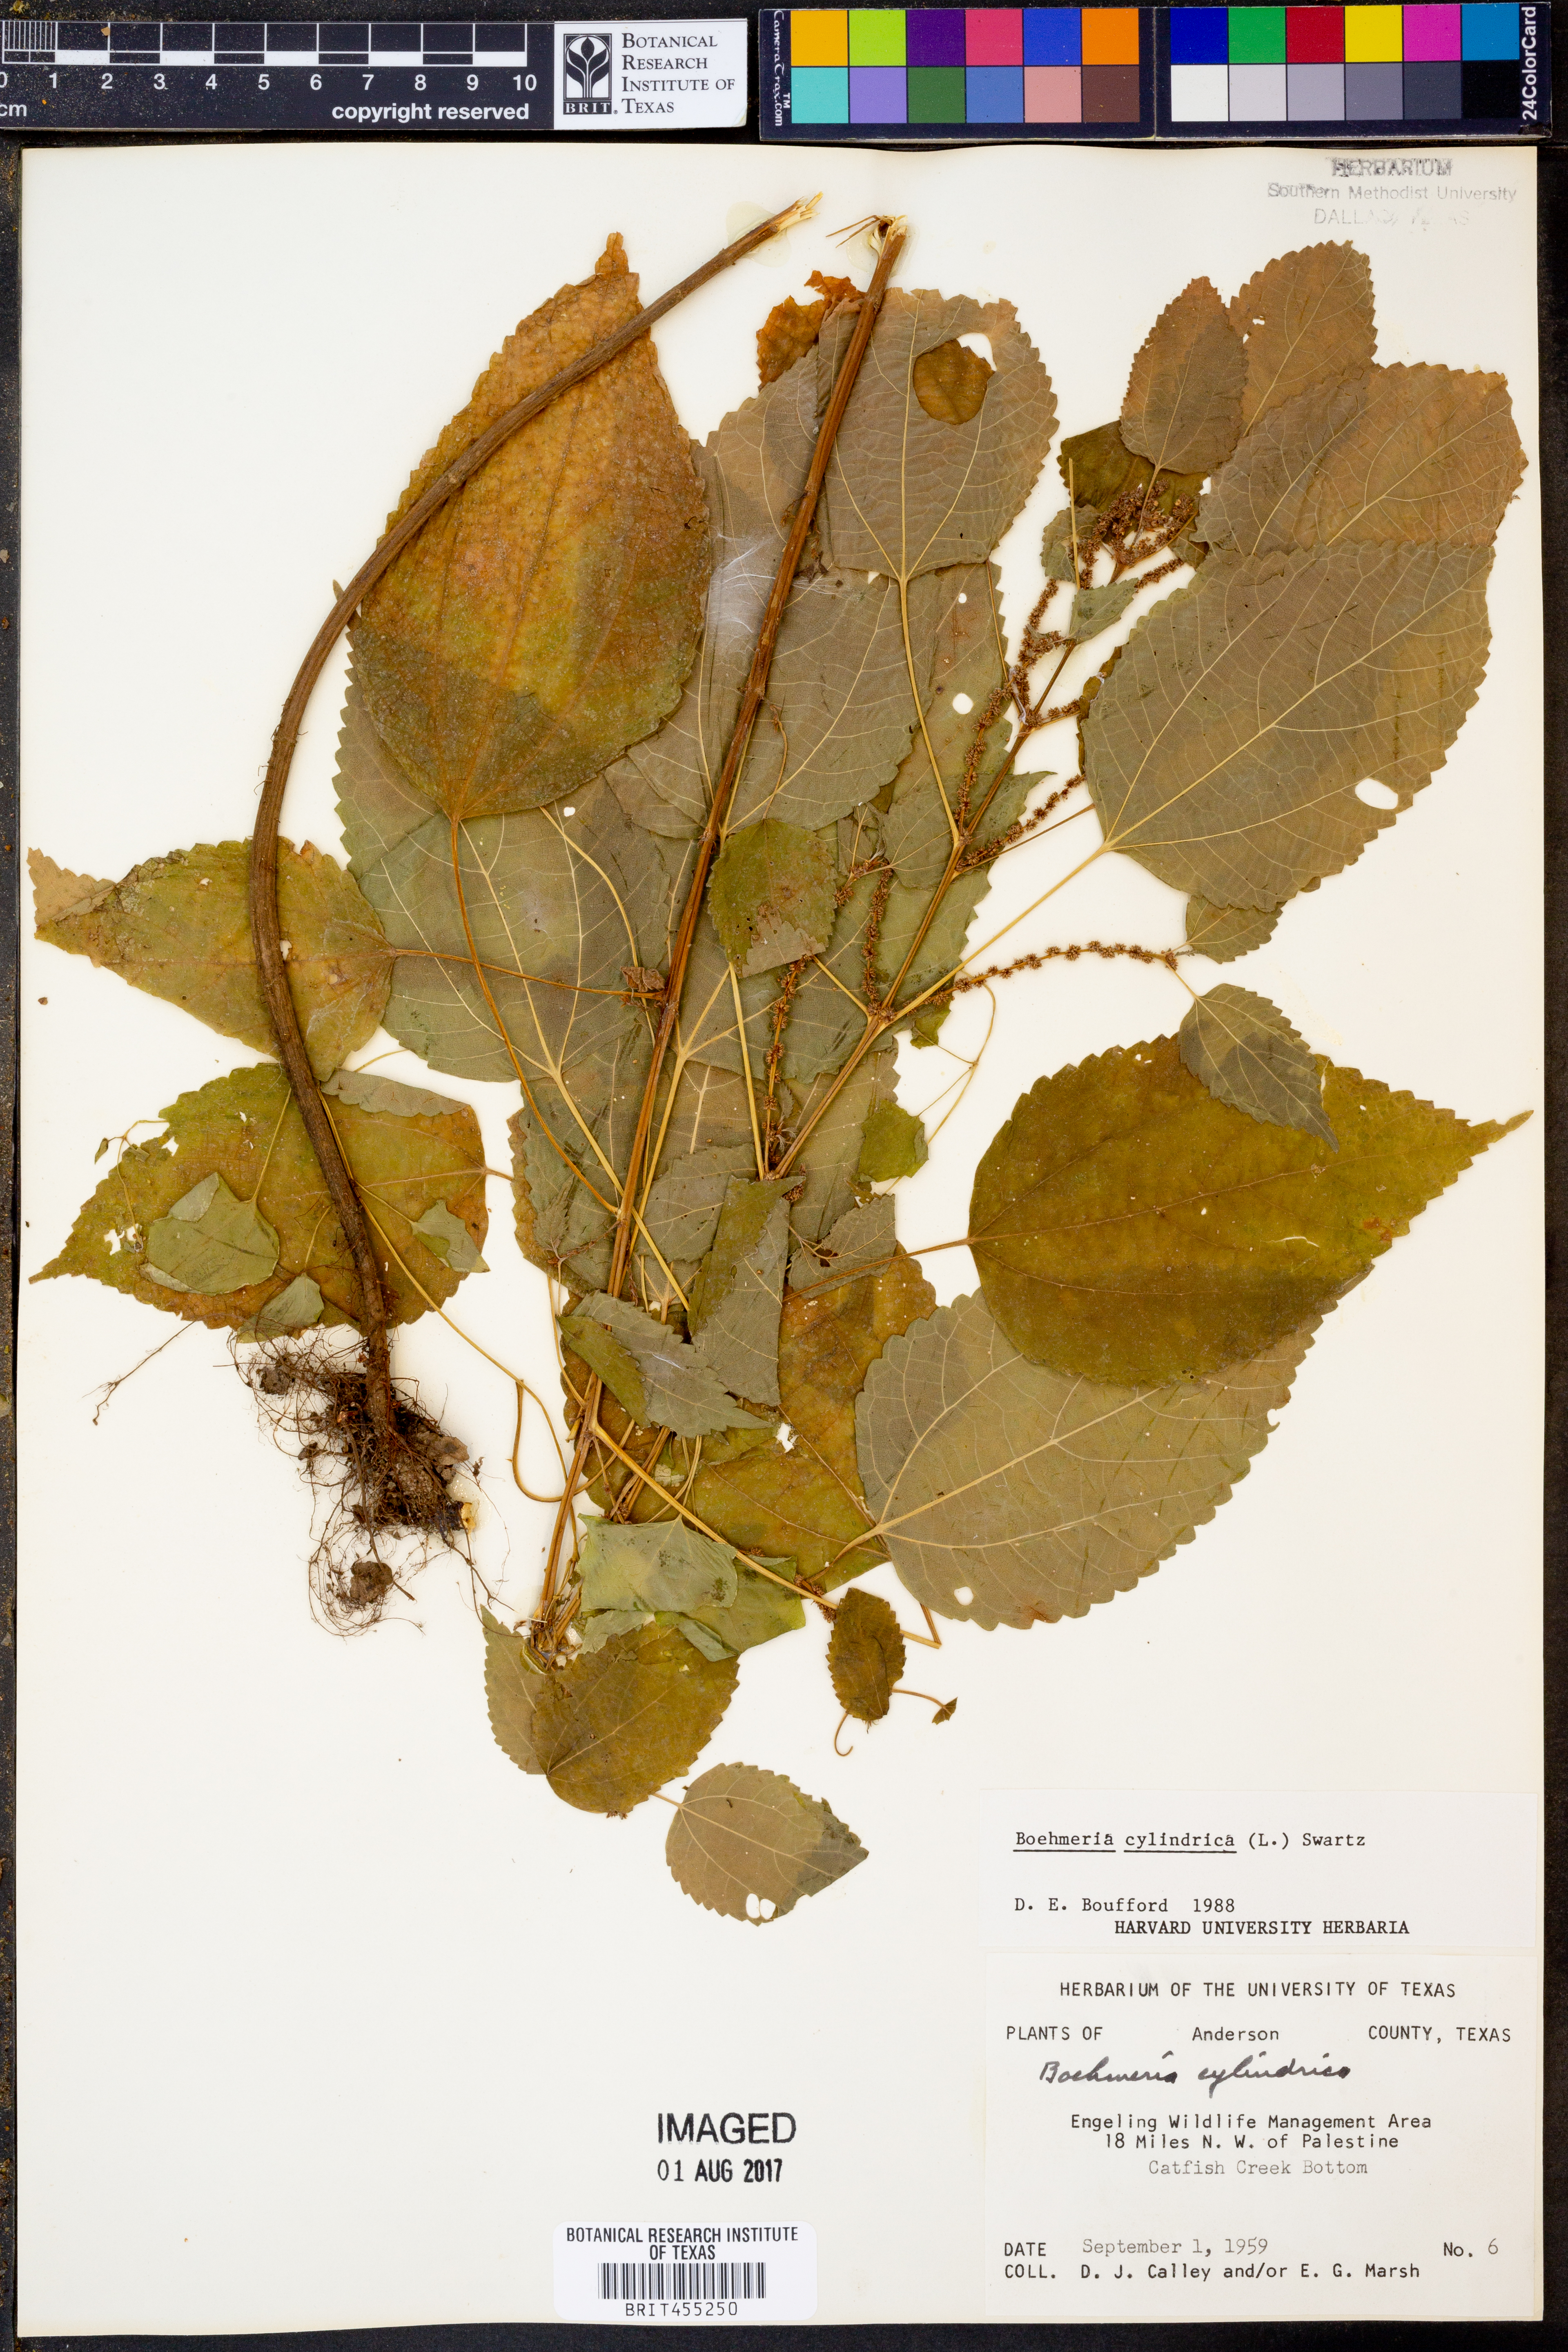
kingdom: Plantae
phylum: Tracheophyta
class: Magnoliopsida
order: Rosales
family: Urticaceae
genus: Boehmeria
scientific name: Boehmeria cylindrica
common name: Bog-hemp
